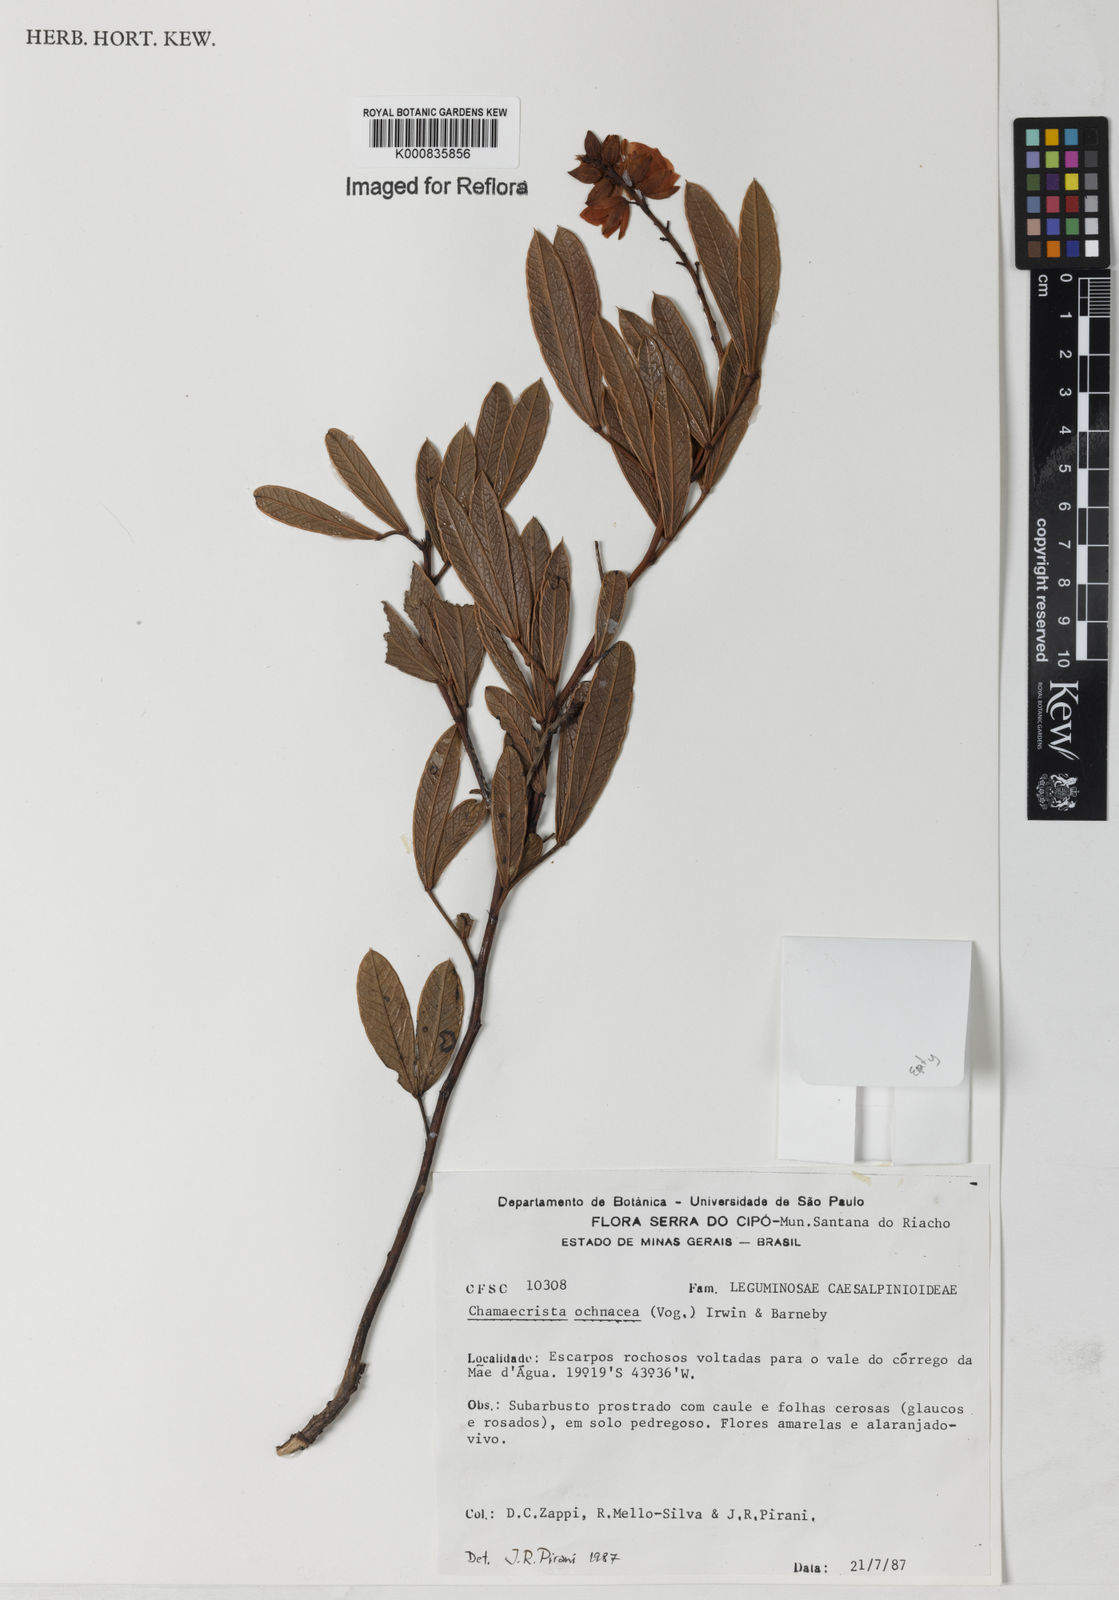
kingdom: Plantae
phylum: Tracheophyta
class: Magnoliopsida
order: Fabales
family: Fabaceae
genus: Chamaecrista
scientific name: Chamaecrista ochnacea
